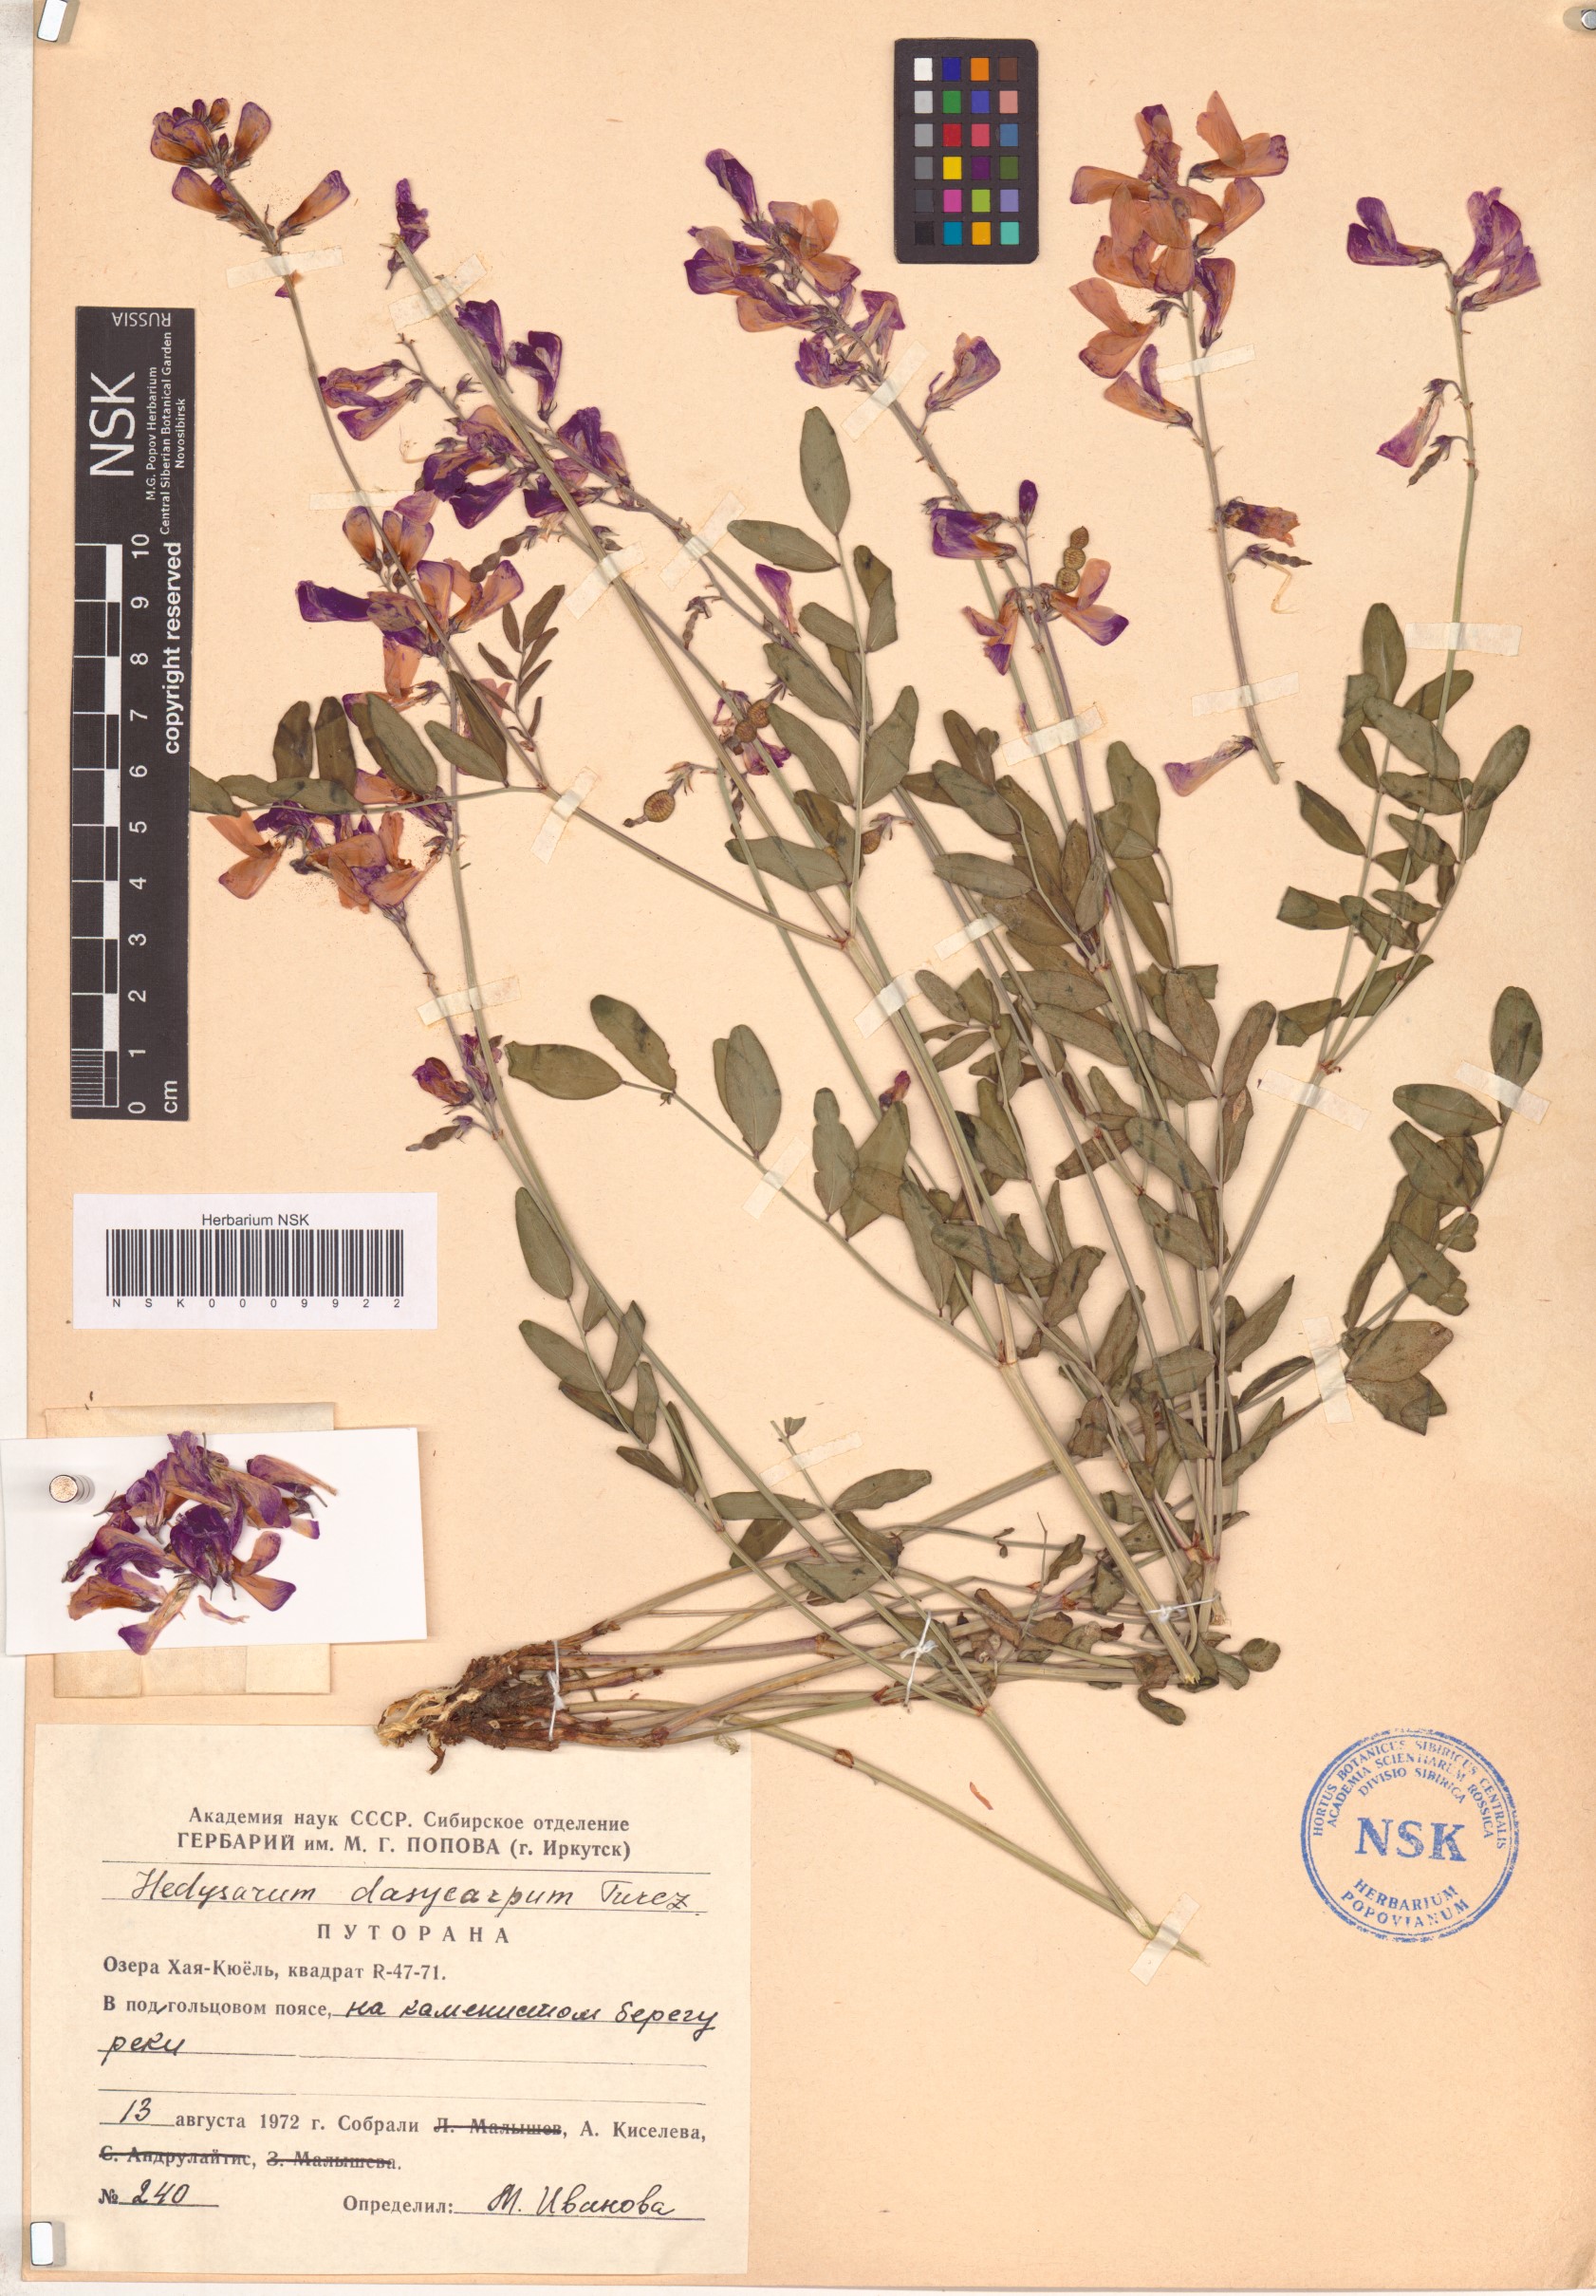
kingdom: Plantae
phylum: Tracheophyta
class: Magnoliopsida
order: Fabales
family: Fabaceae
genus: Hedysarum
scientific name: Hedysarum dasycarpum
